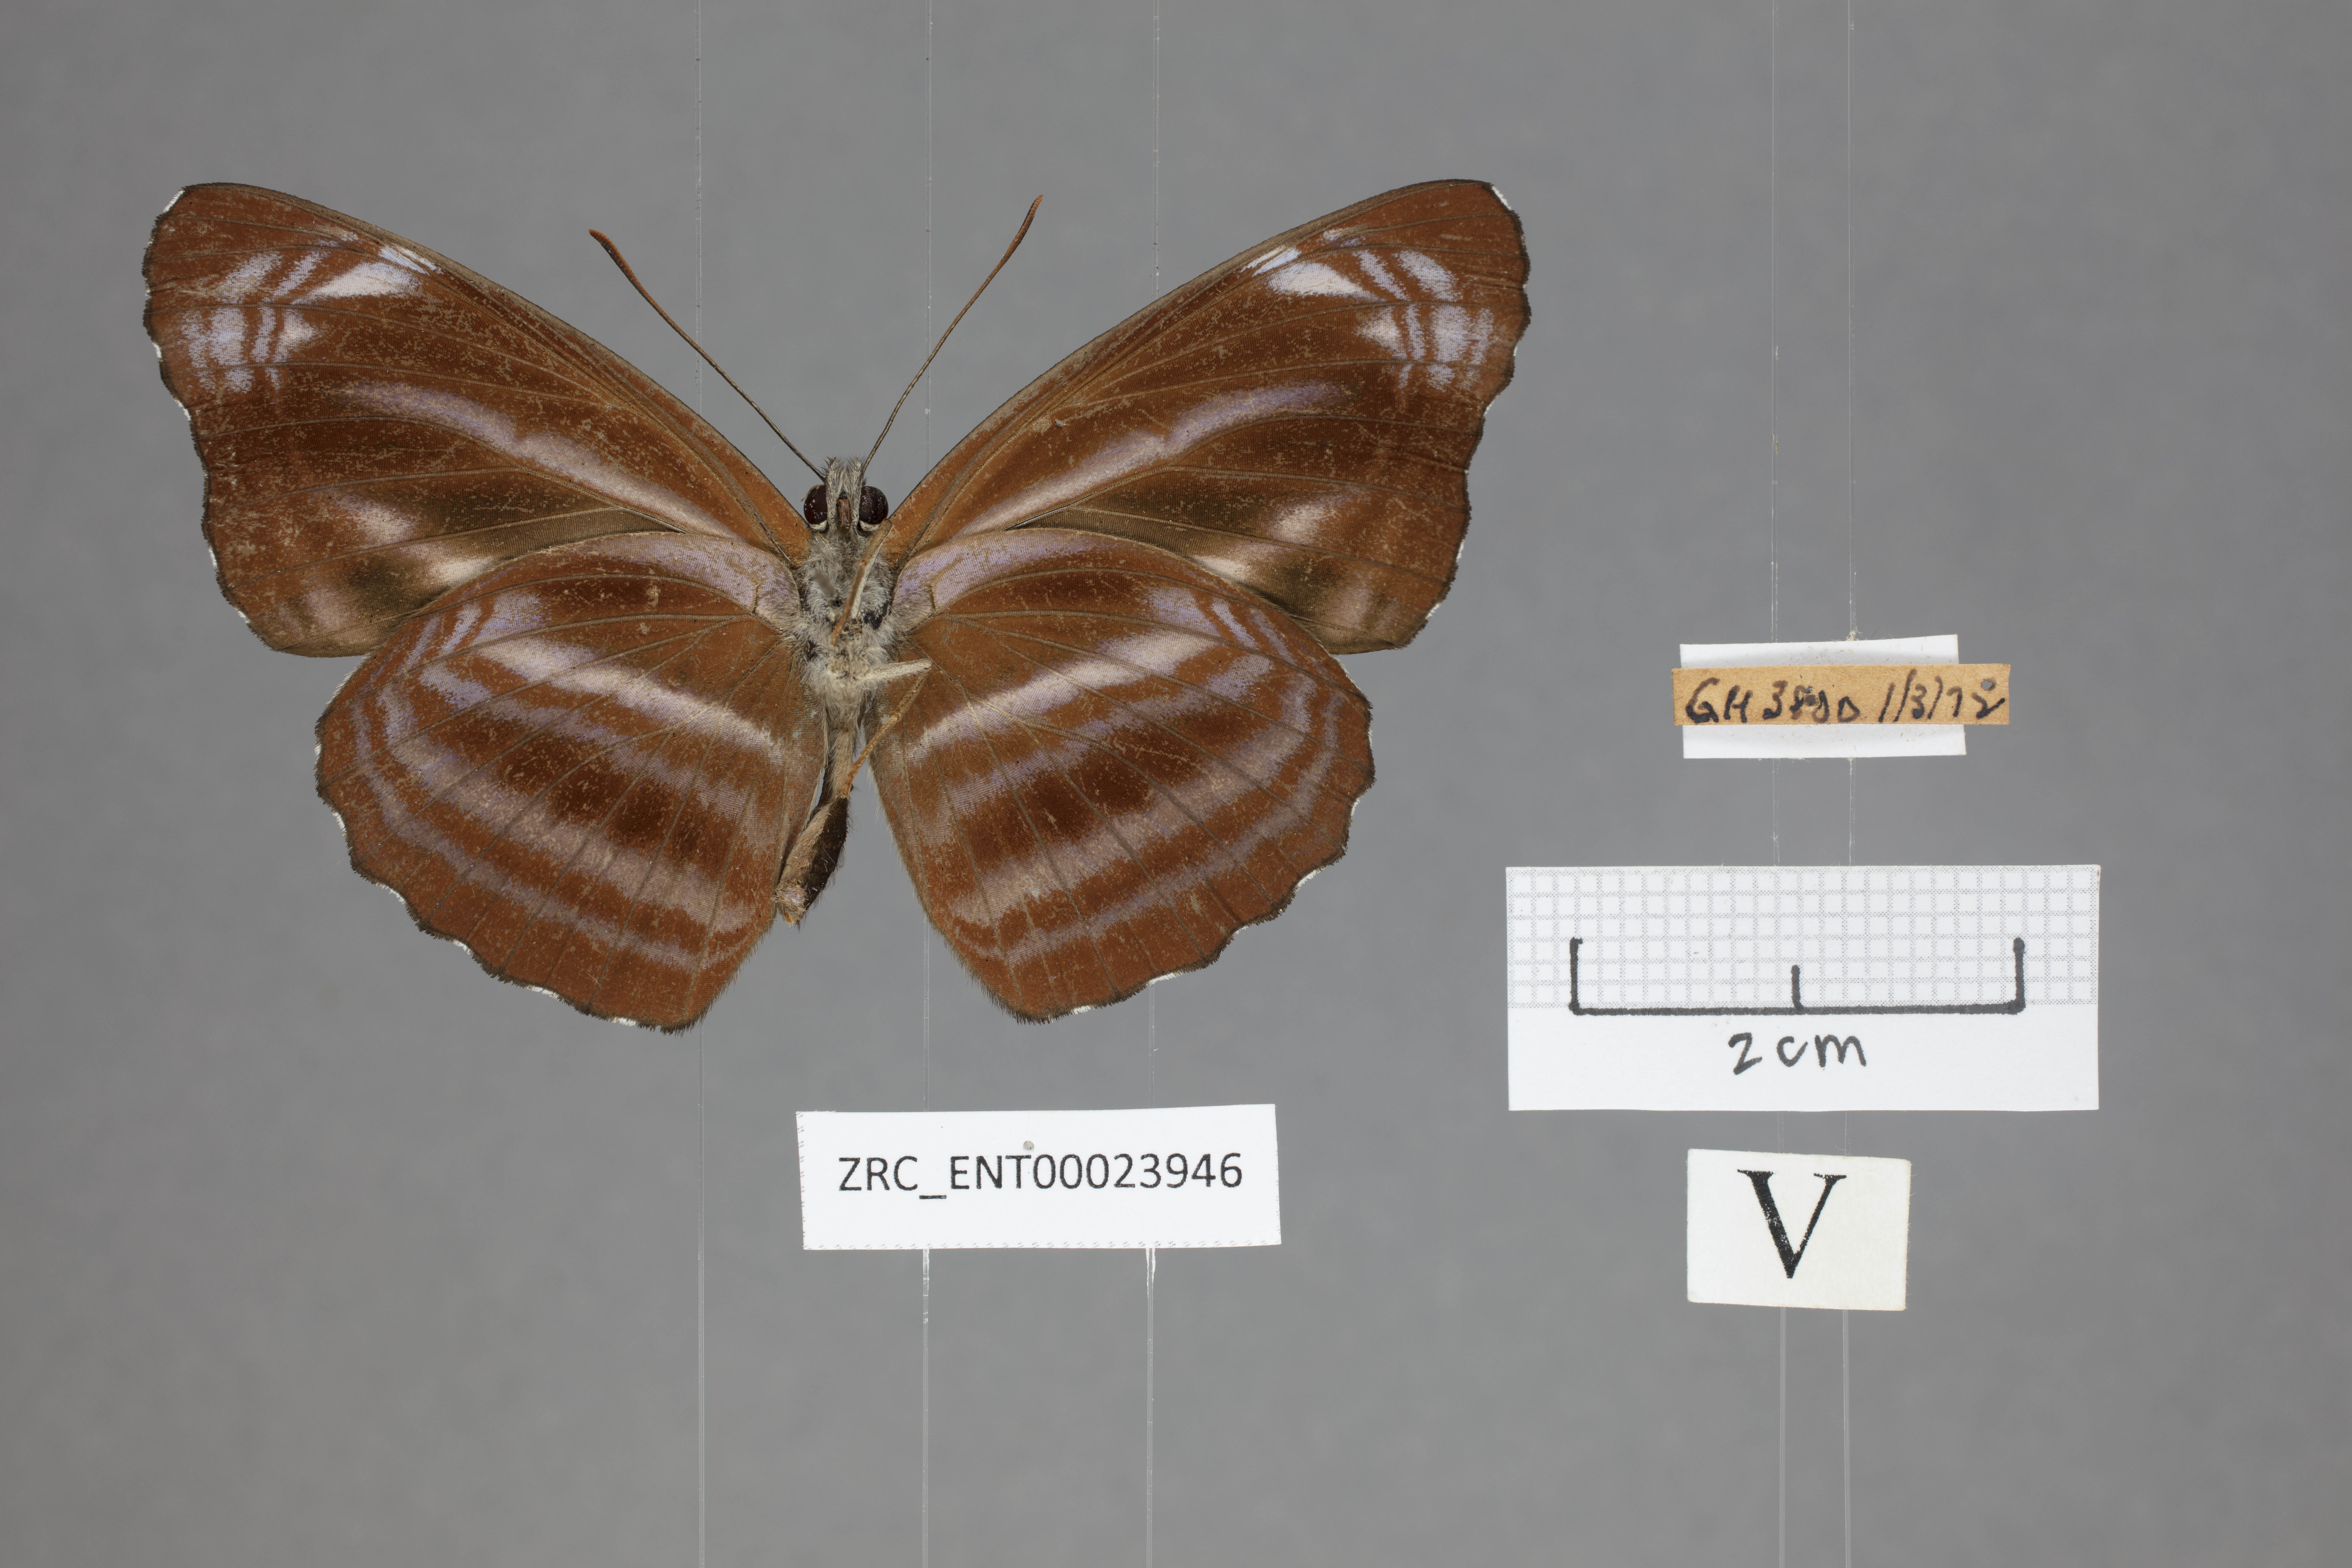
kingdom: Animalia
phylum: Arthropoda
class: Insecta
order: Lepidoptera
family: Nymphalidae
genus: Neptis
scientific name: Neptis anjana
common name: Rich sailer
